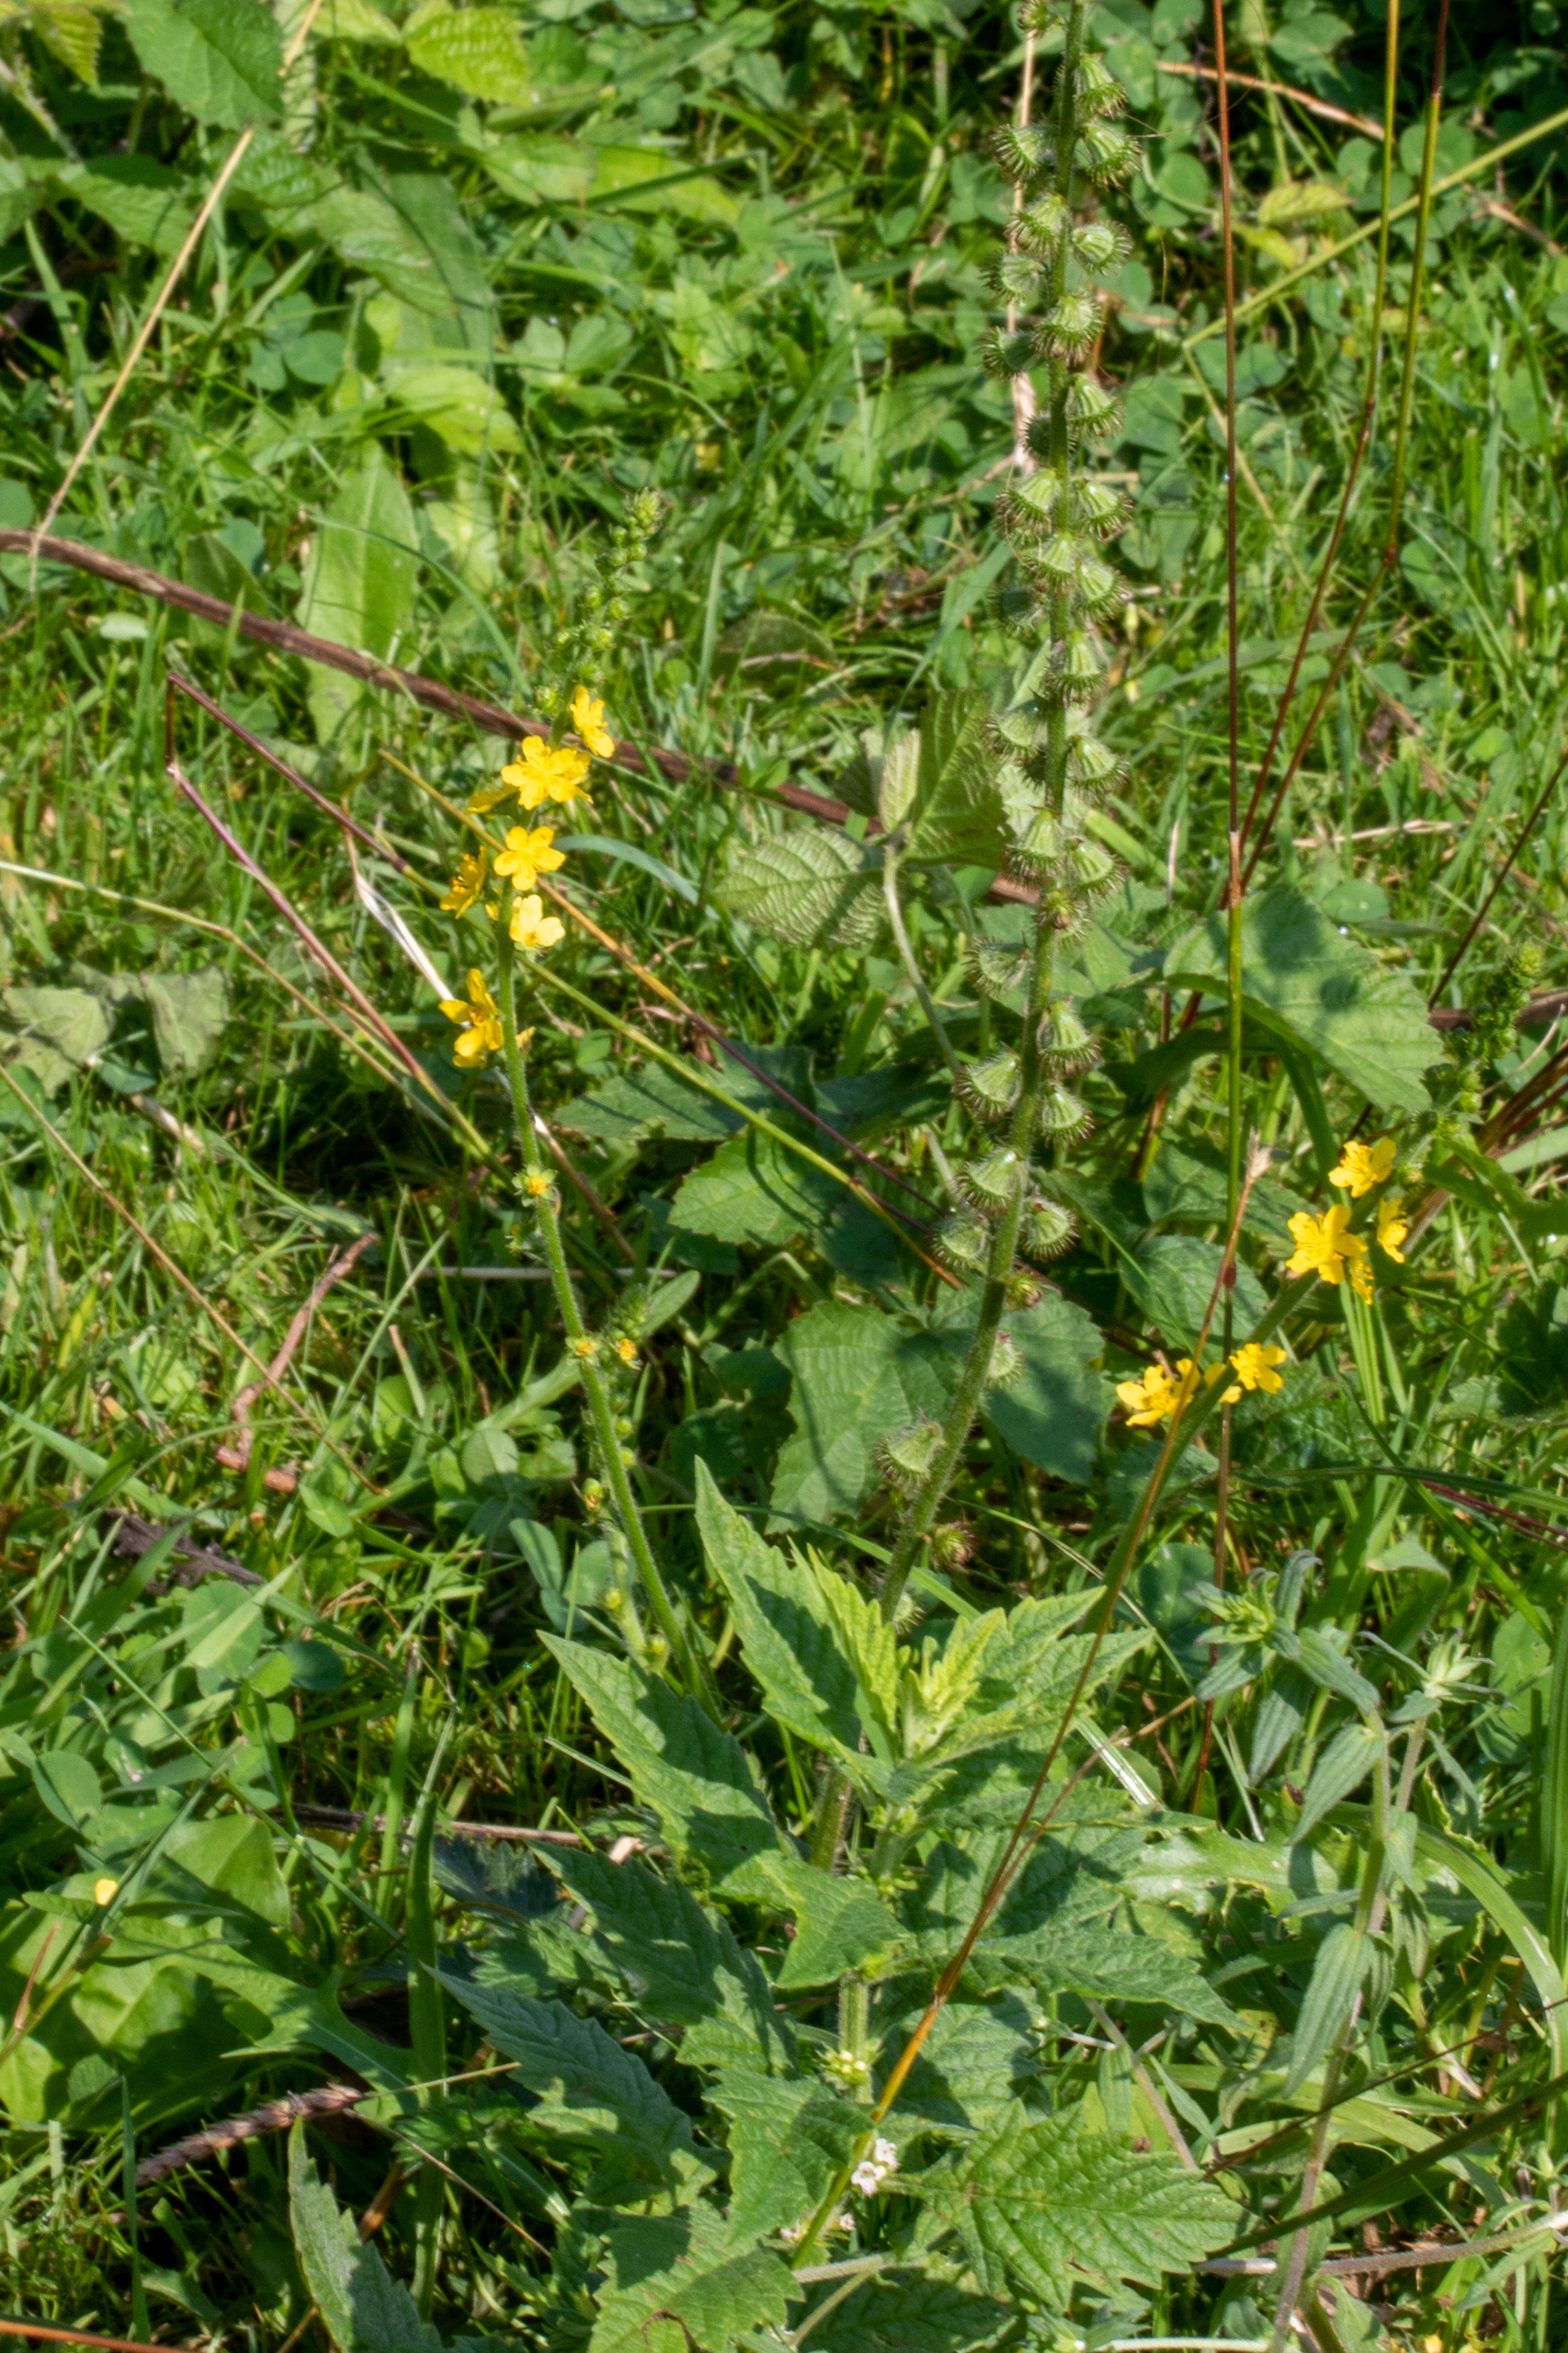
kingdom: Plantae
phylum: Tracheophyta
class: Magnoliopsida
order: Rosales
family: Rosaceae
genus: Agrimonia
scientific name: Agrimonia eupatoria
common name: Almindelig agermåne
